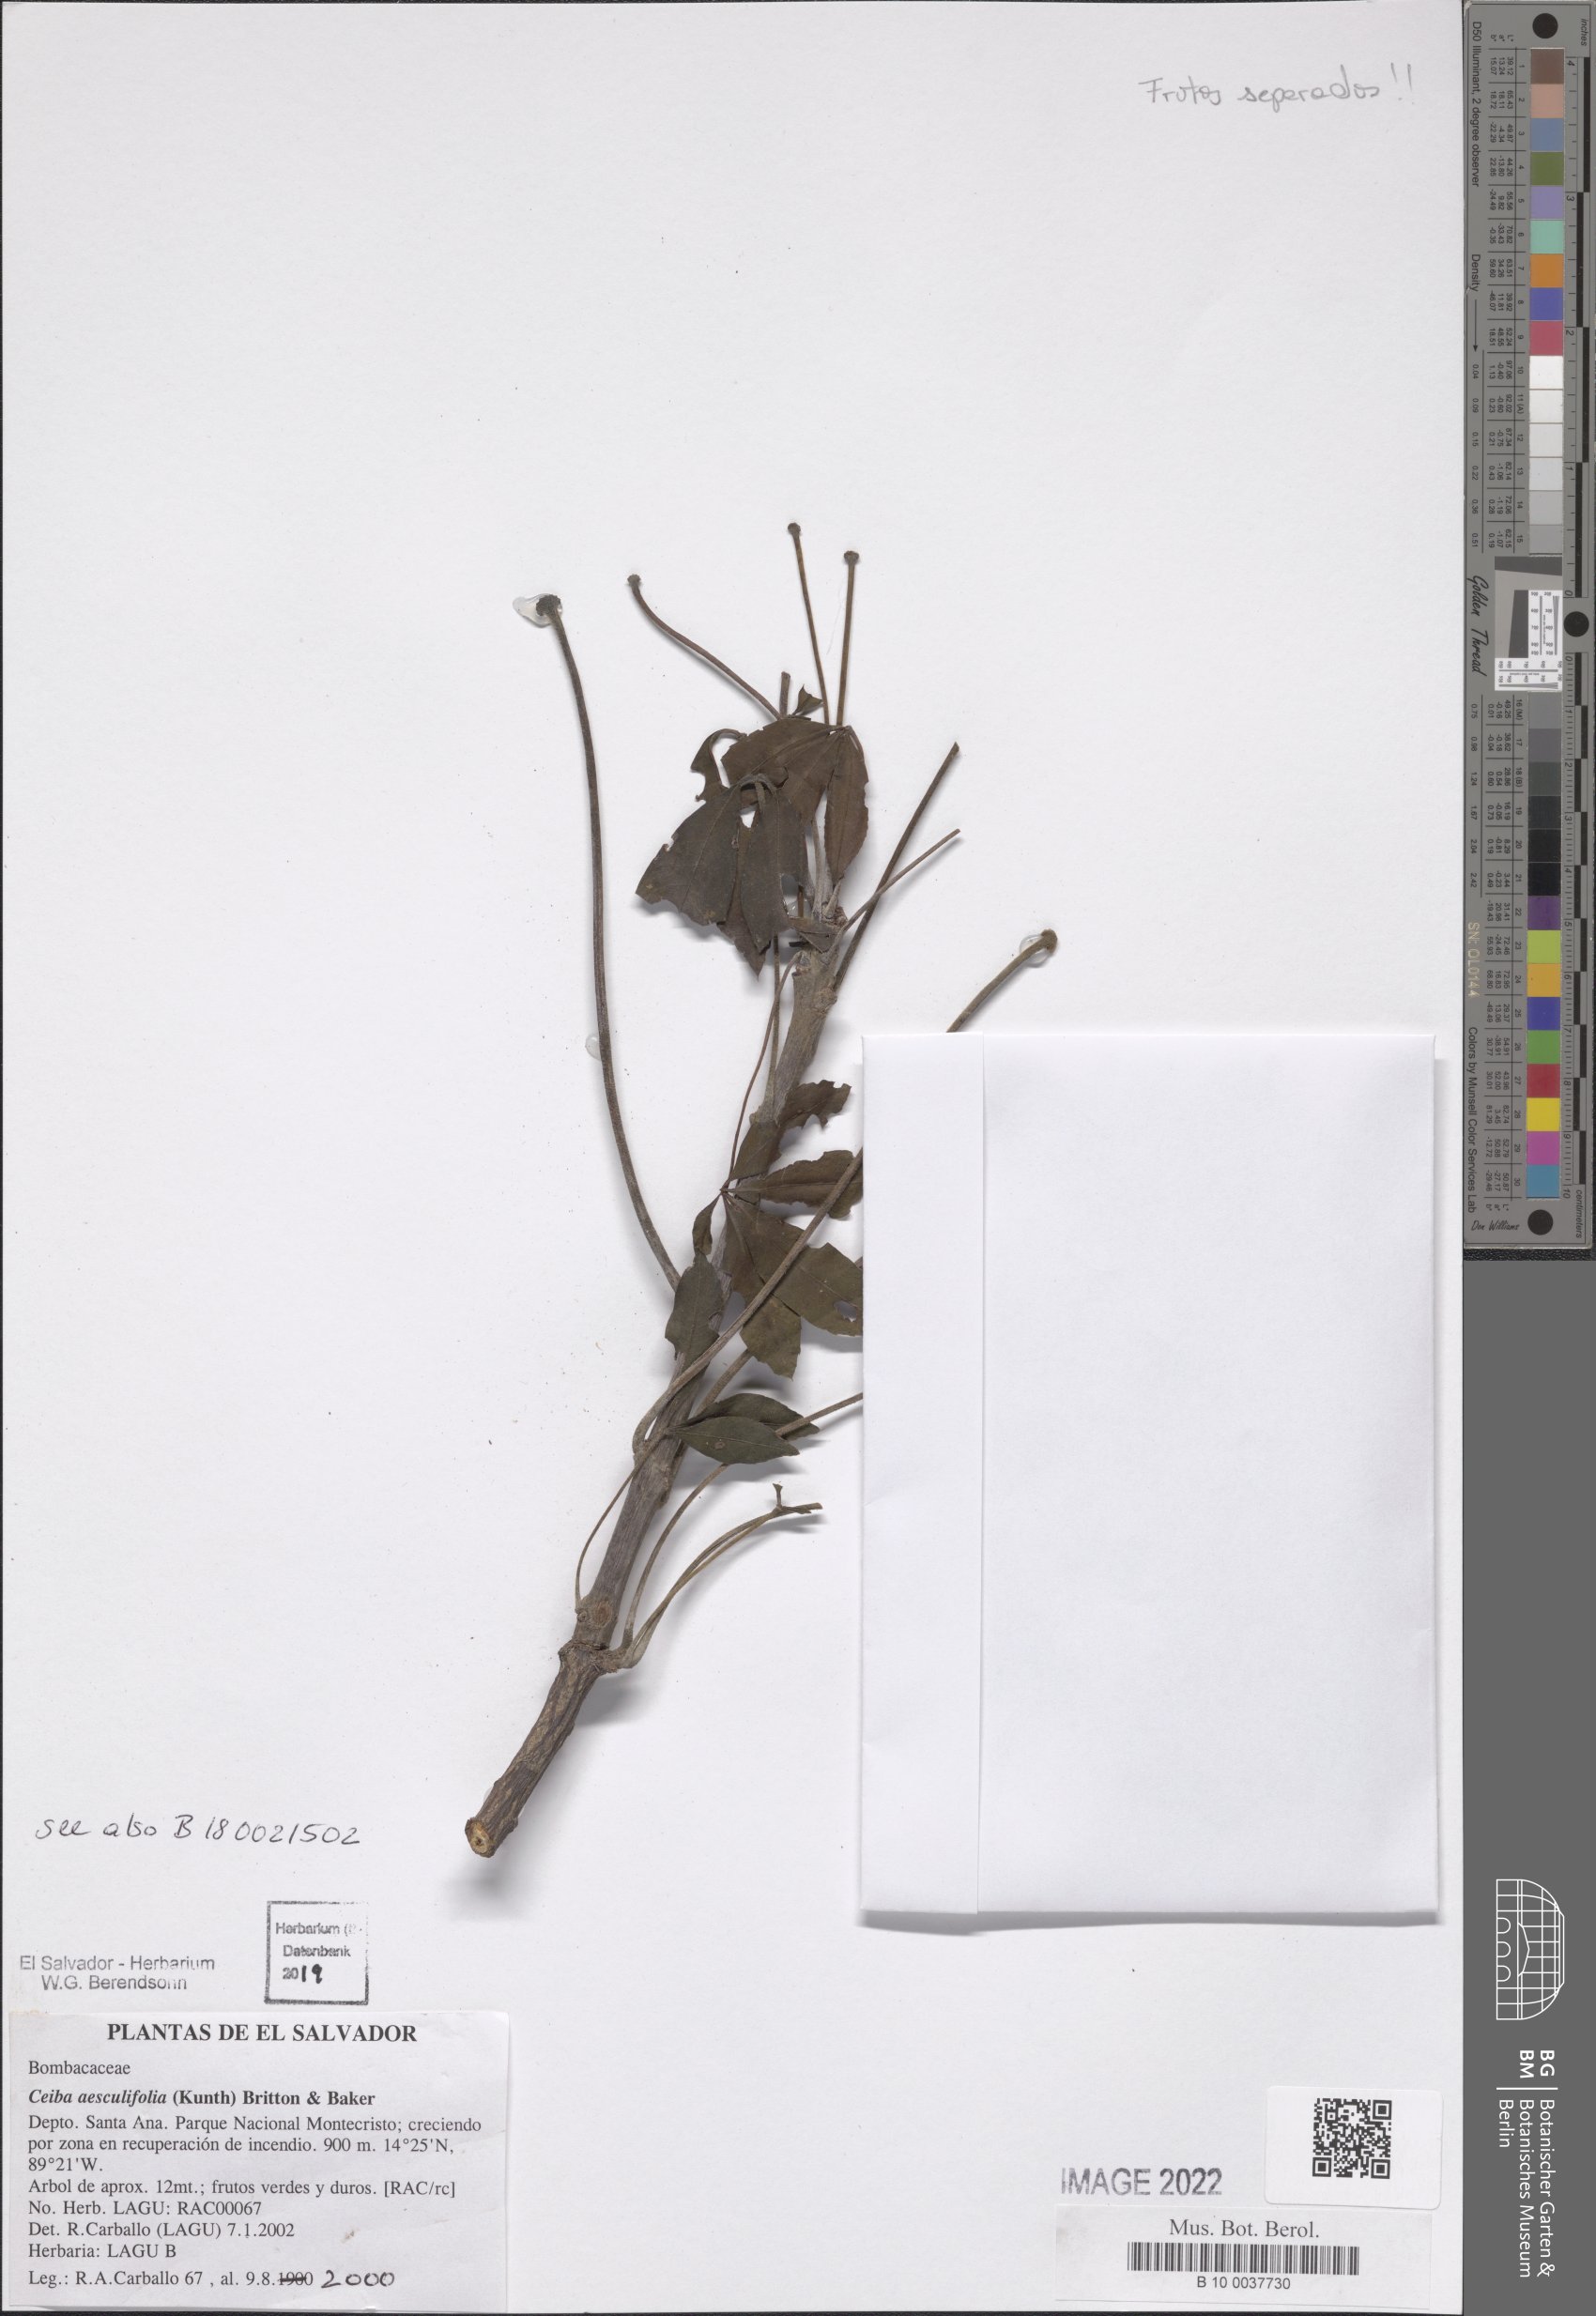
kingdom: Plantae
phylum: Tracheophyta
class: Magnoliopsida
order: Malvales
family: Malvaceae
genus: Ceiba
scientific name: Ceiba aesculifolia
